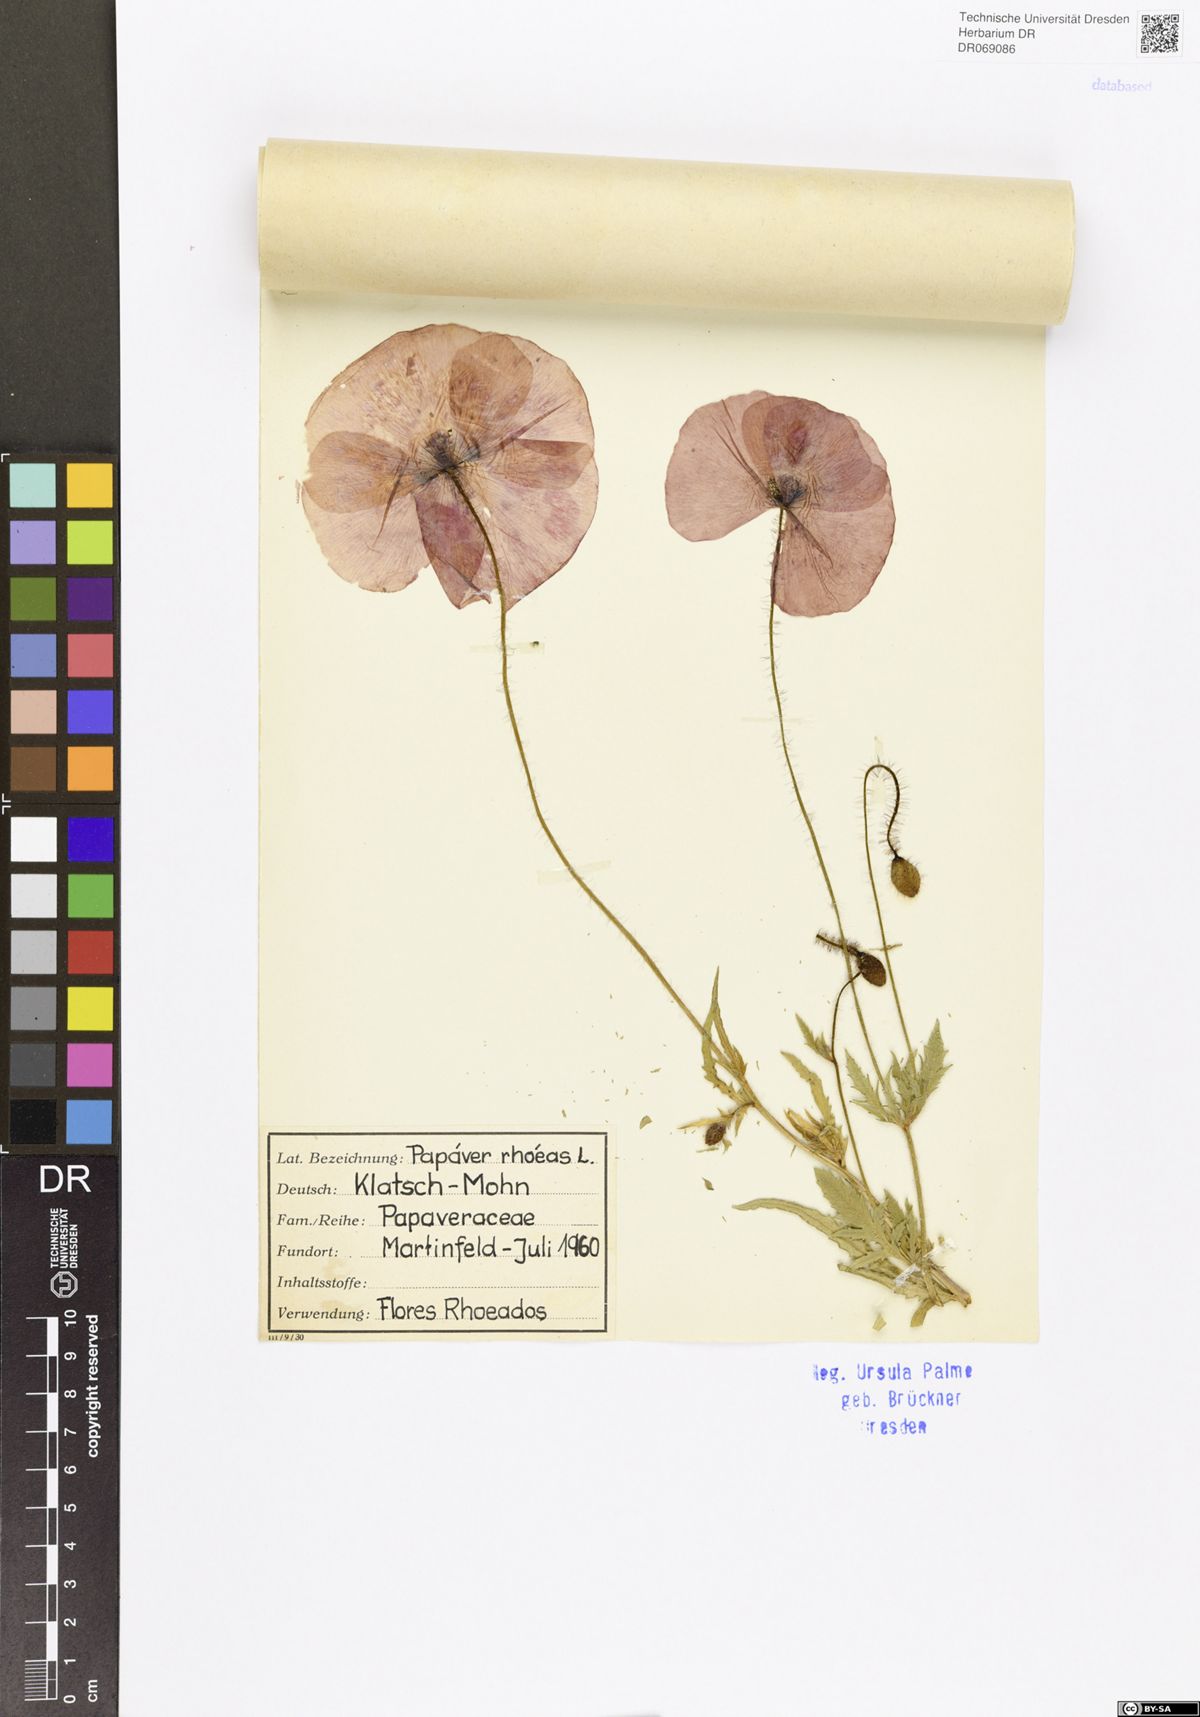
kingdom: Plantae
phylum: Tracheophyta
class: Magnoliopsida
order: Ranunculales
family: Papaveraceae
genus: Papaver
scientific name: Papaver rhoeas
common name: Corn poppy
